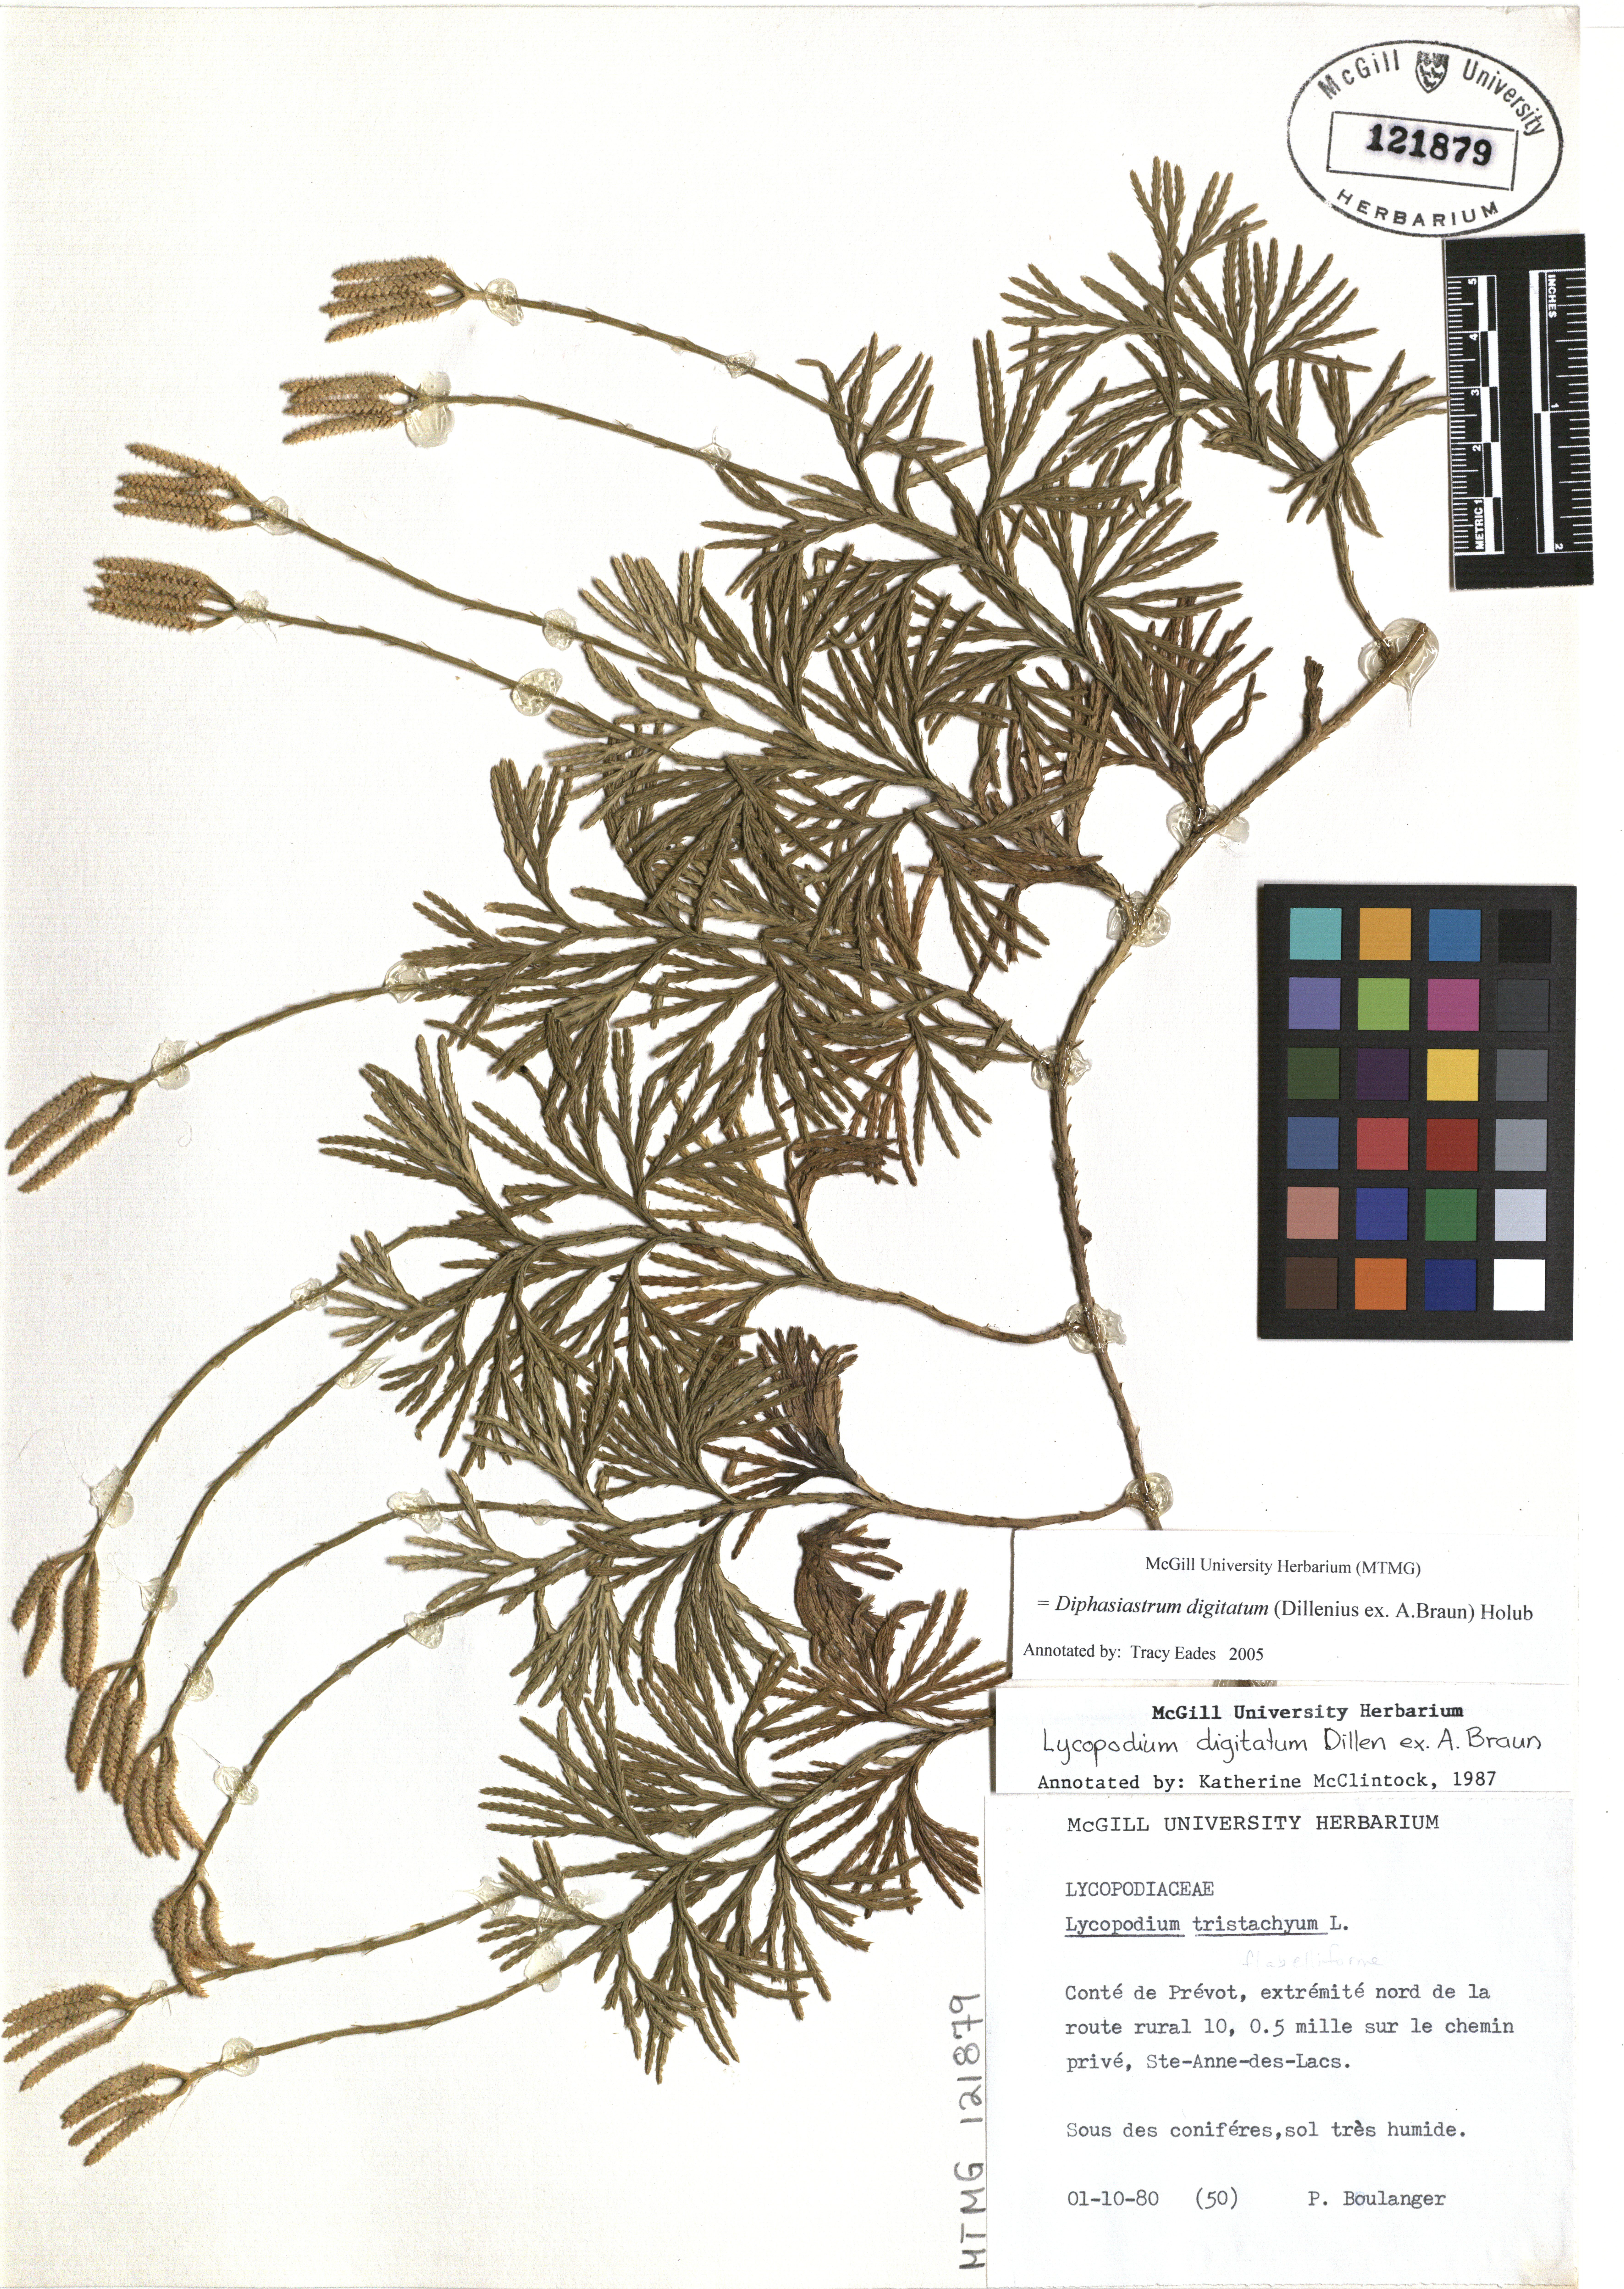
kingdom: Plantae
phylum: Tracheophyta
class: Lycopodiopsida
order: Lycopodiales
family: Lycopodiaceae
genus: Diphasiastrum
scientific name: Diphasiastrum digitatum
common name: Southern running-pine
